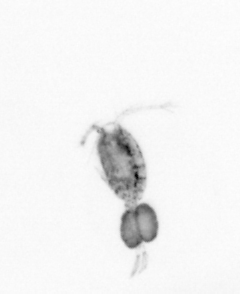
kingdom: Animalia
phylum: Arthropoda
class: Copepoda
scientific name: Copepoda
